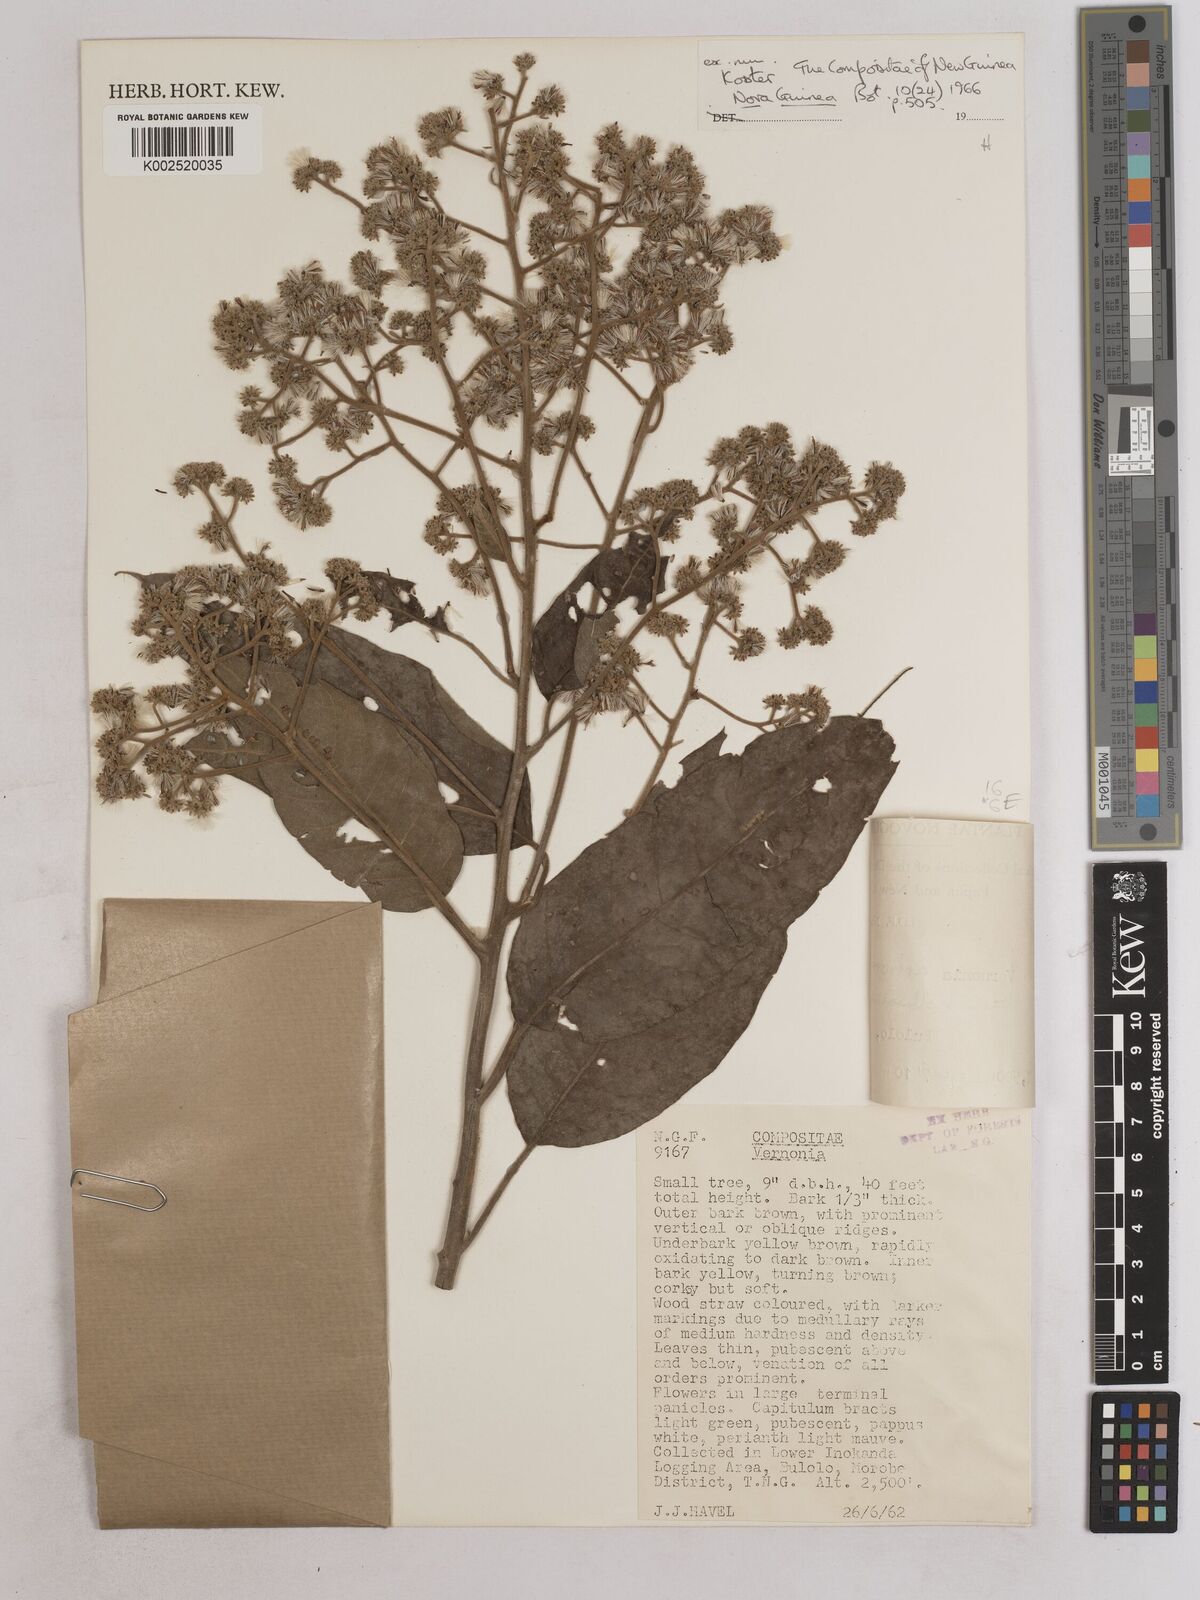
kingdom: Plantae
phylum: Tracheophyta
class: Magnoliopsida
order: Asterales
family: Asteraceae
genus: Strobocalyx
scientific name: Strobocalyx arborea
